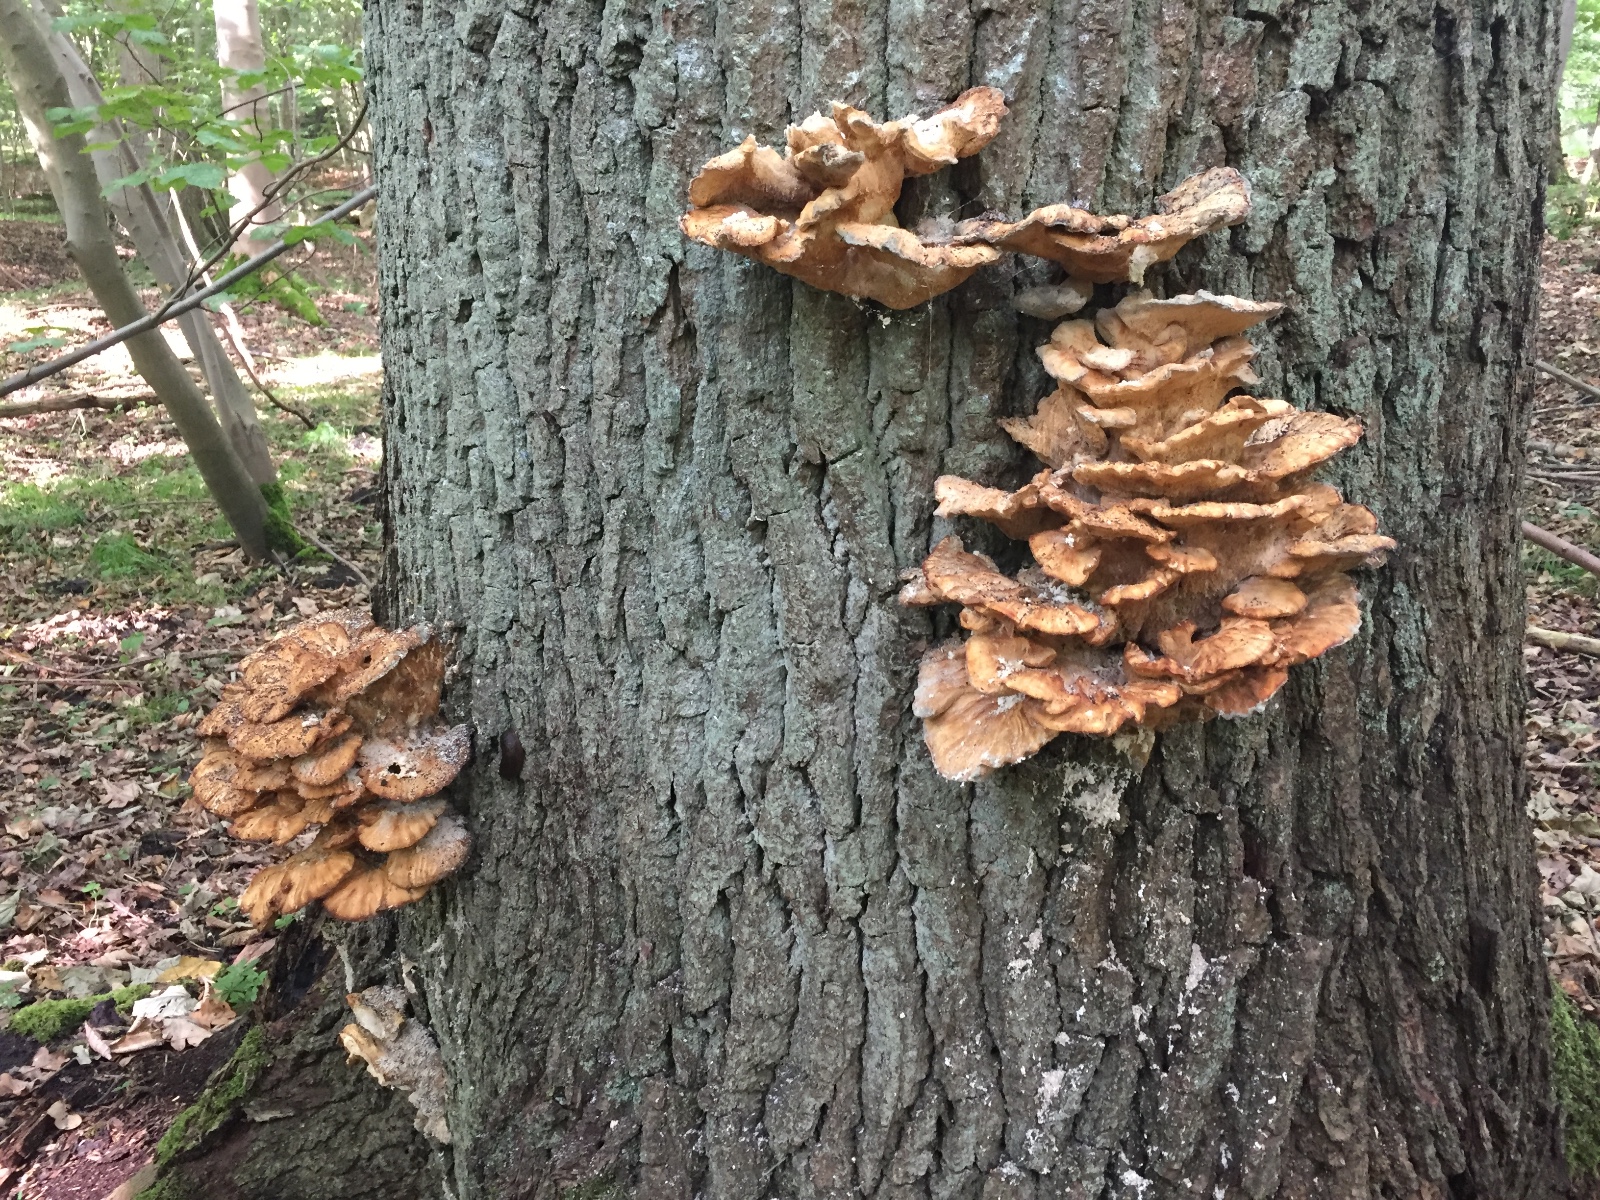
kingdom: Fungi
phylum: Basidiomycota
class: Agaricomycetes
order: Polyporales
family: Laetiporaceae
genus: Laetiporus
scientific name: Laetiporus sulphureus
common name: svovlporesvamp
